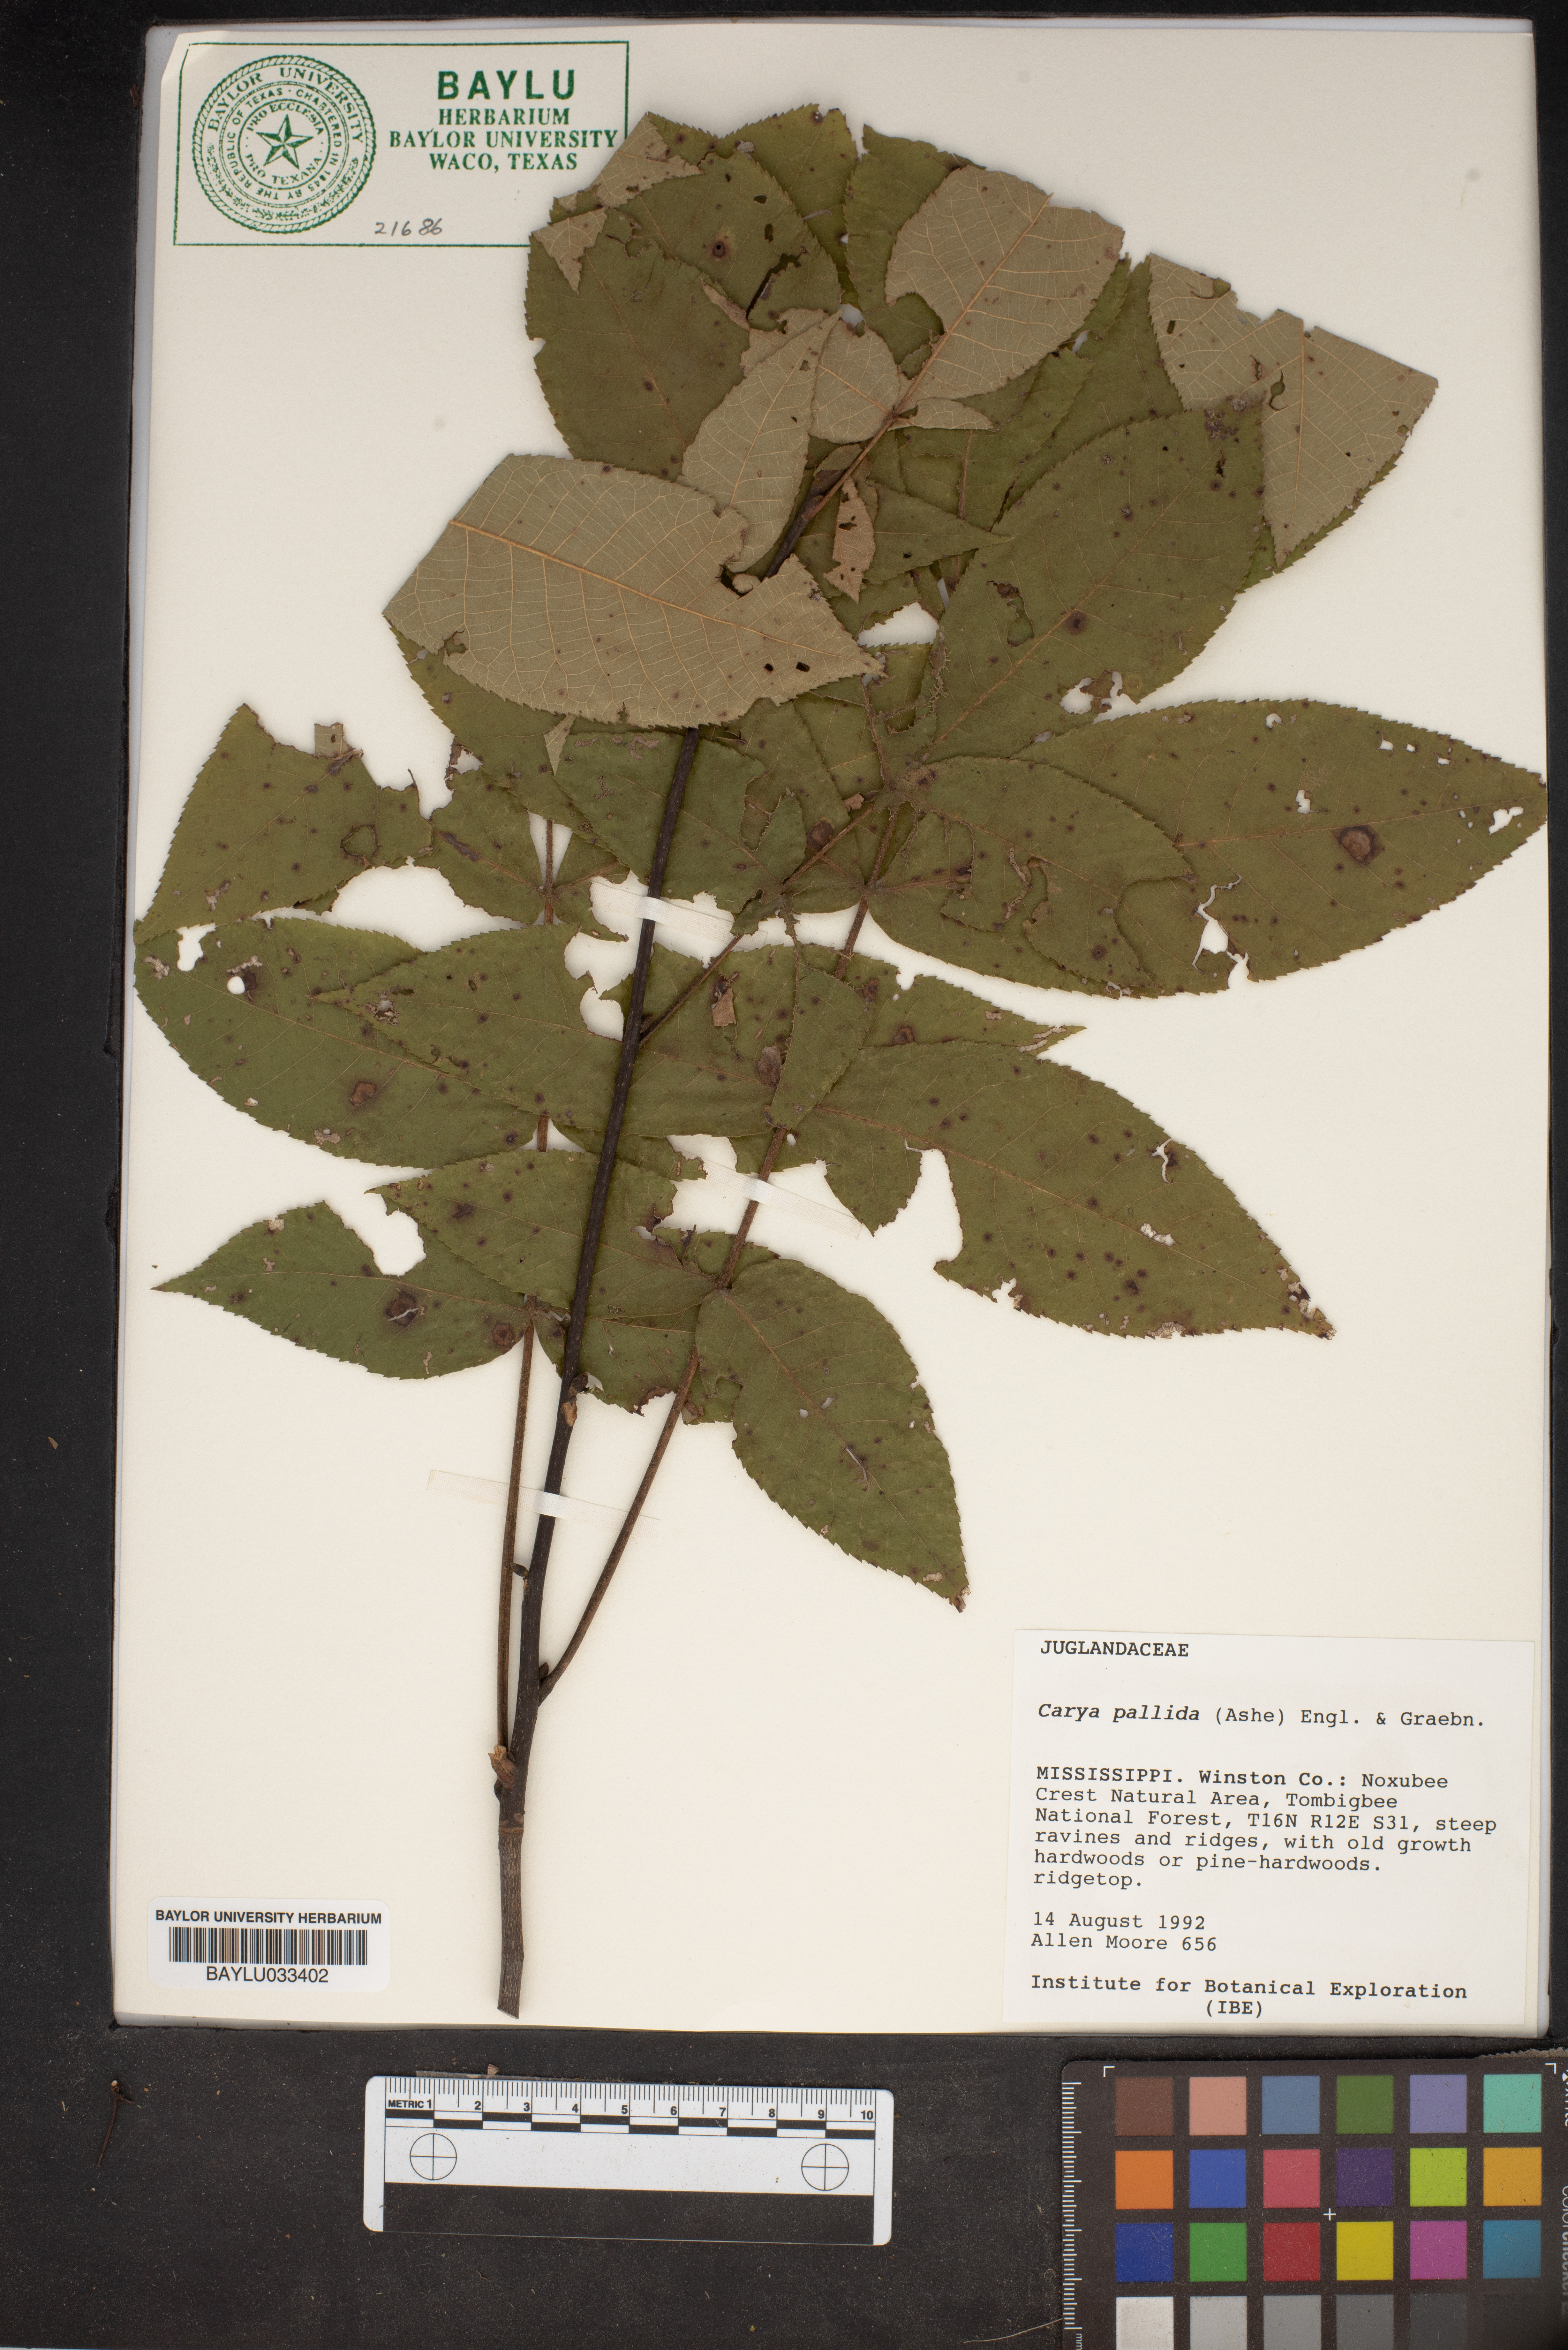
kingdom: Plantae
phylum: Tracheophyta
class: Magnoliopsida
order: Fagales
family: Juglandaceae
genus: Carya
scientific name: Carya pallida
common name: Sand hickory
